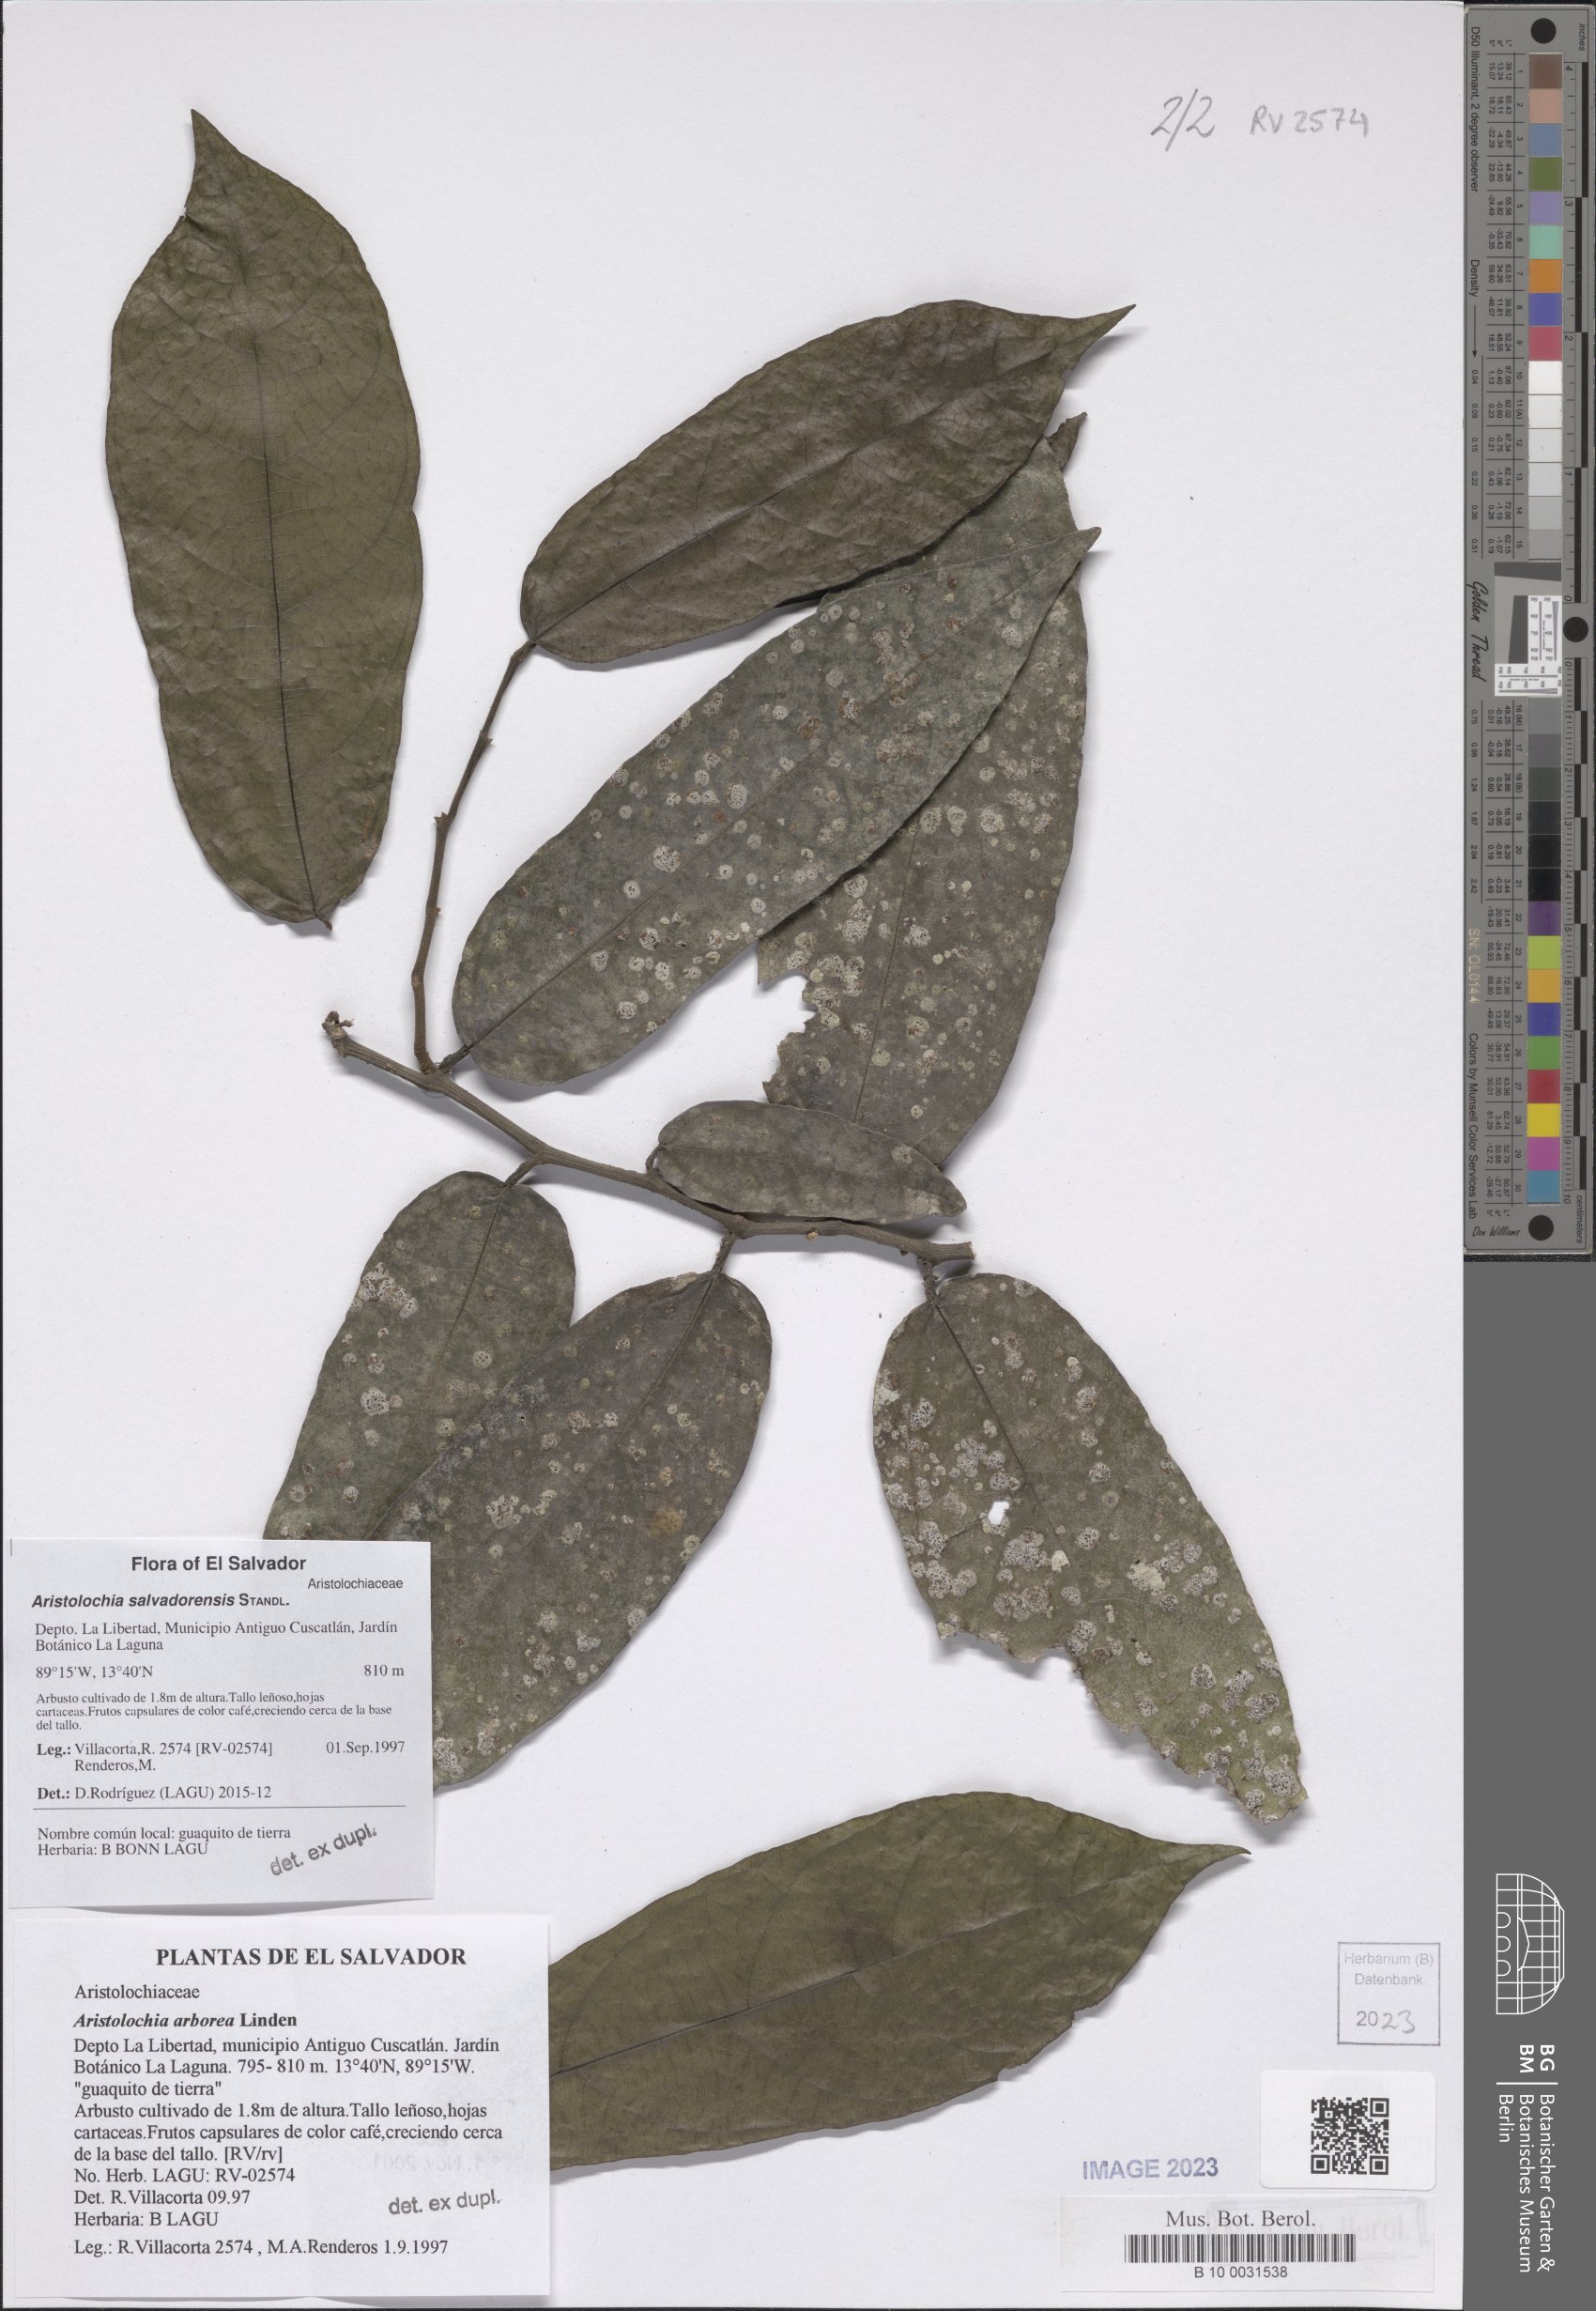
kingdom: Plantae
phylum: Tracheophyta
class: Magnoliopsida
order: Piperales
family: Aristolochiaceae
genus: Isotrema
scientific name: Isotrema arborea
